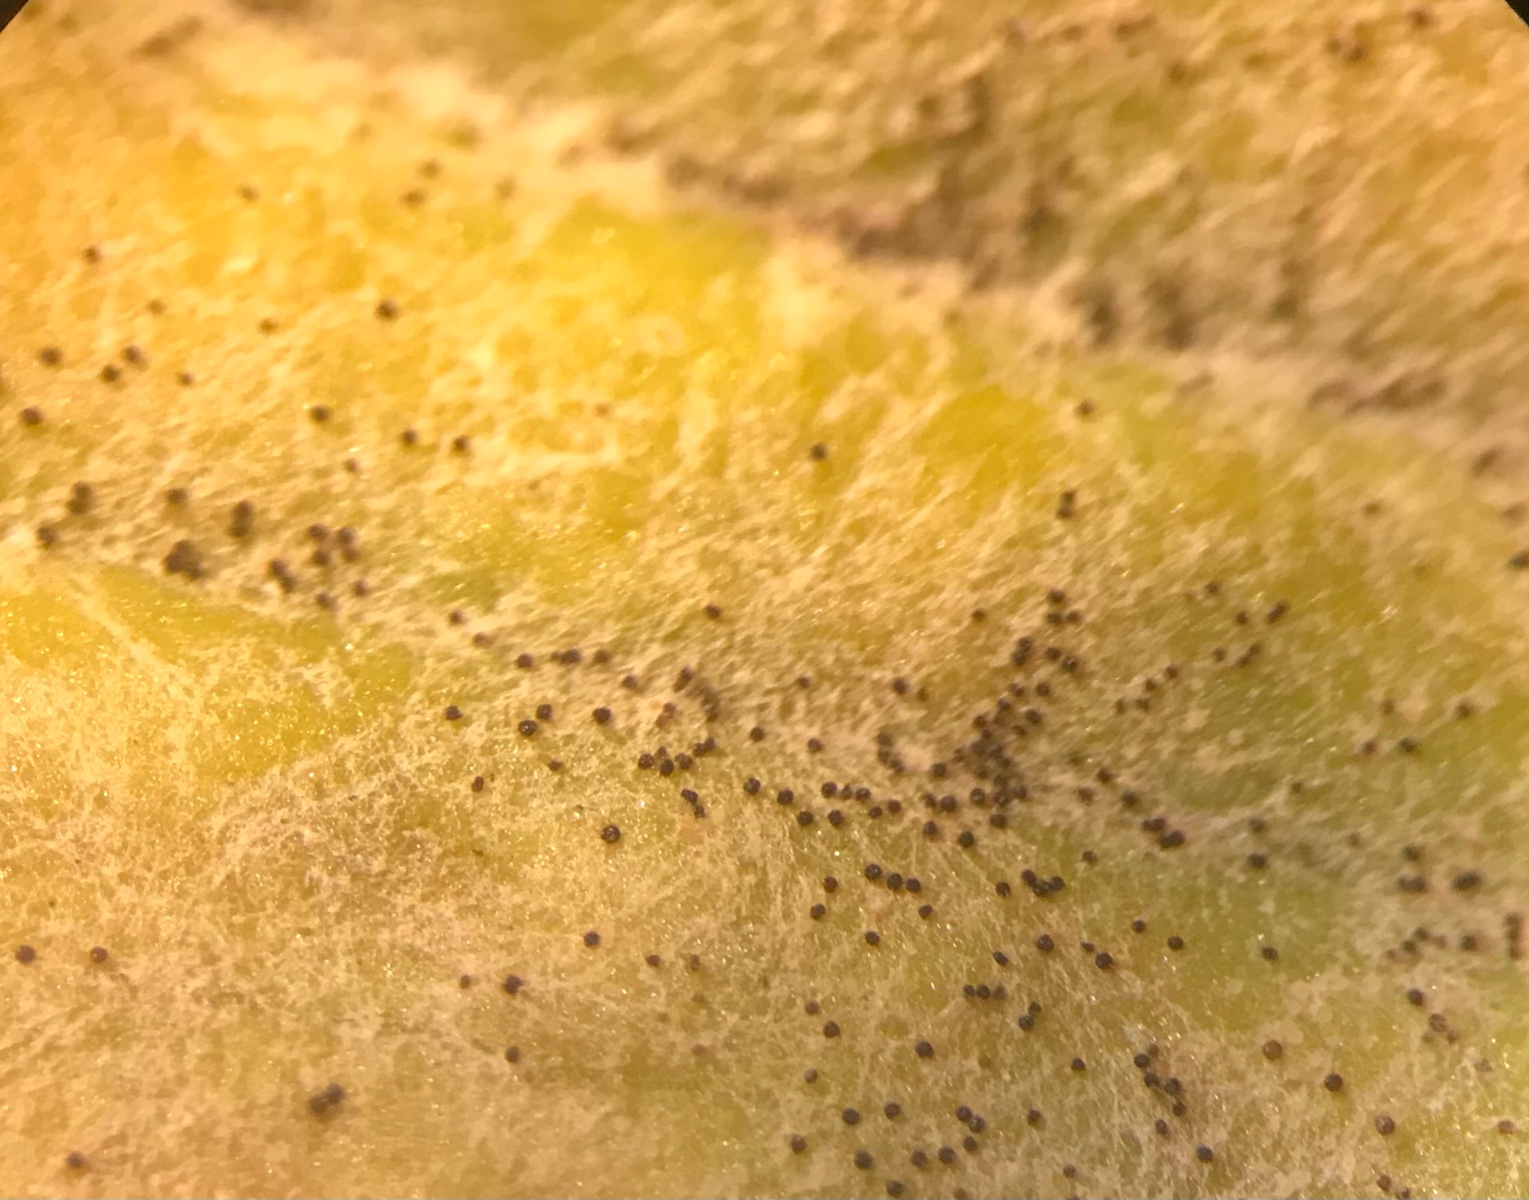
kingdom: Fungi
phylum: Ascomycota
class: Leotiomycetes
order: Helotiales
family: Erysiphaceae
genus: Podosphaera
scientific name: Podosphaera plantaginis
